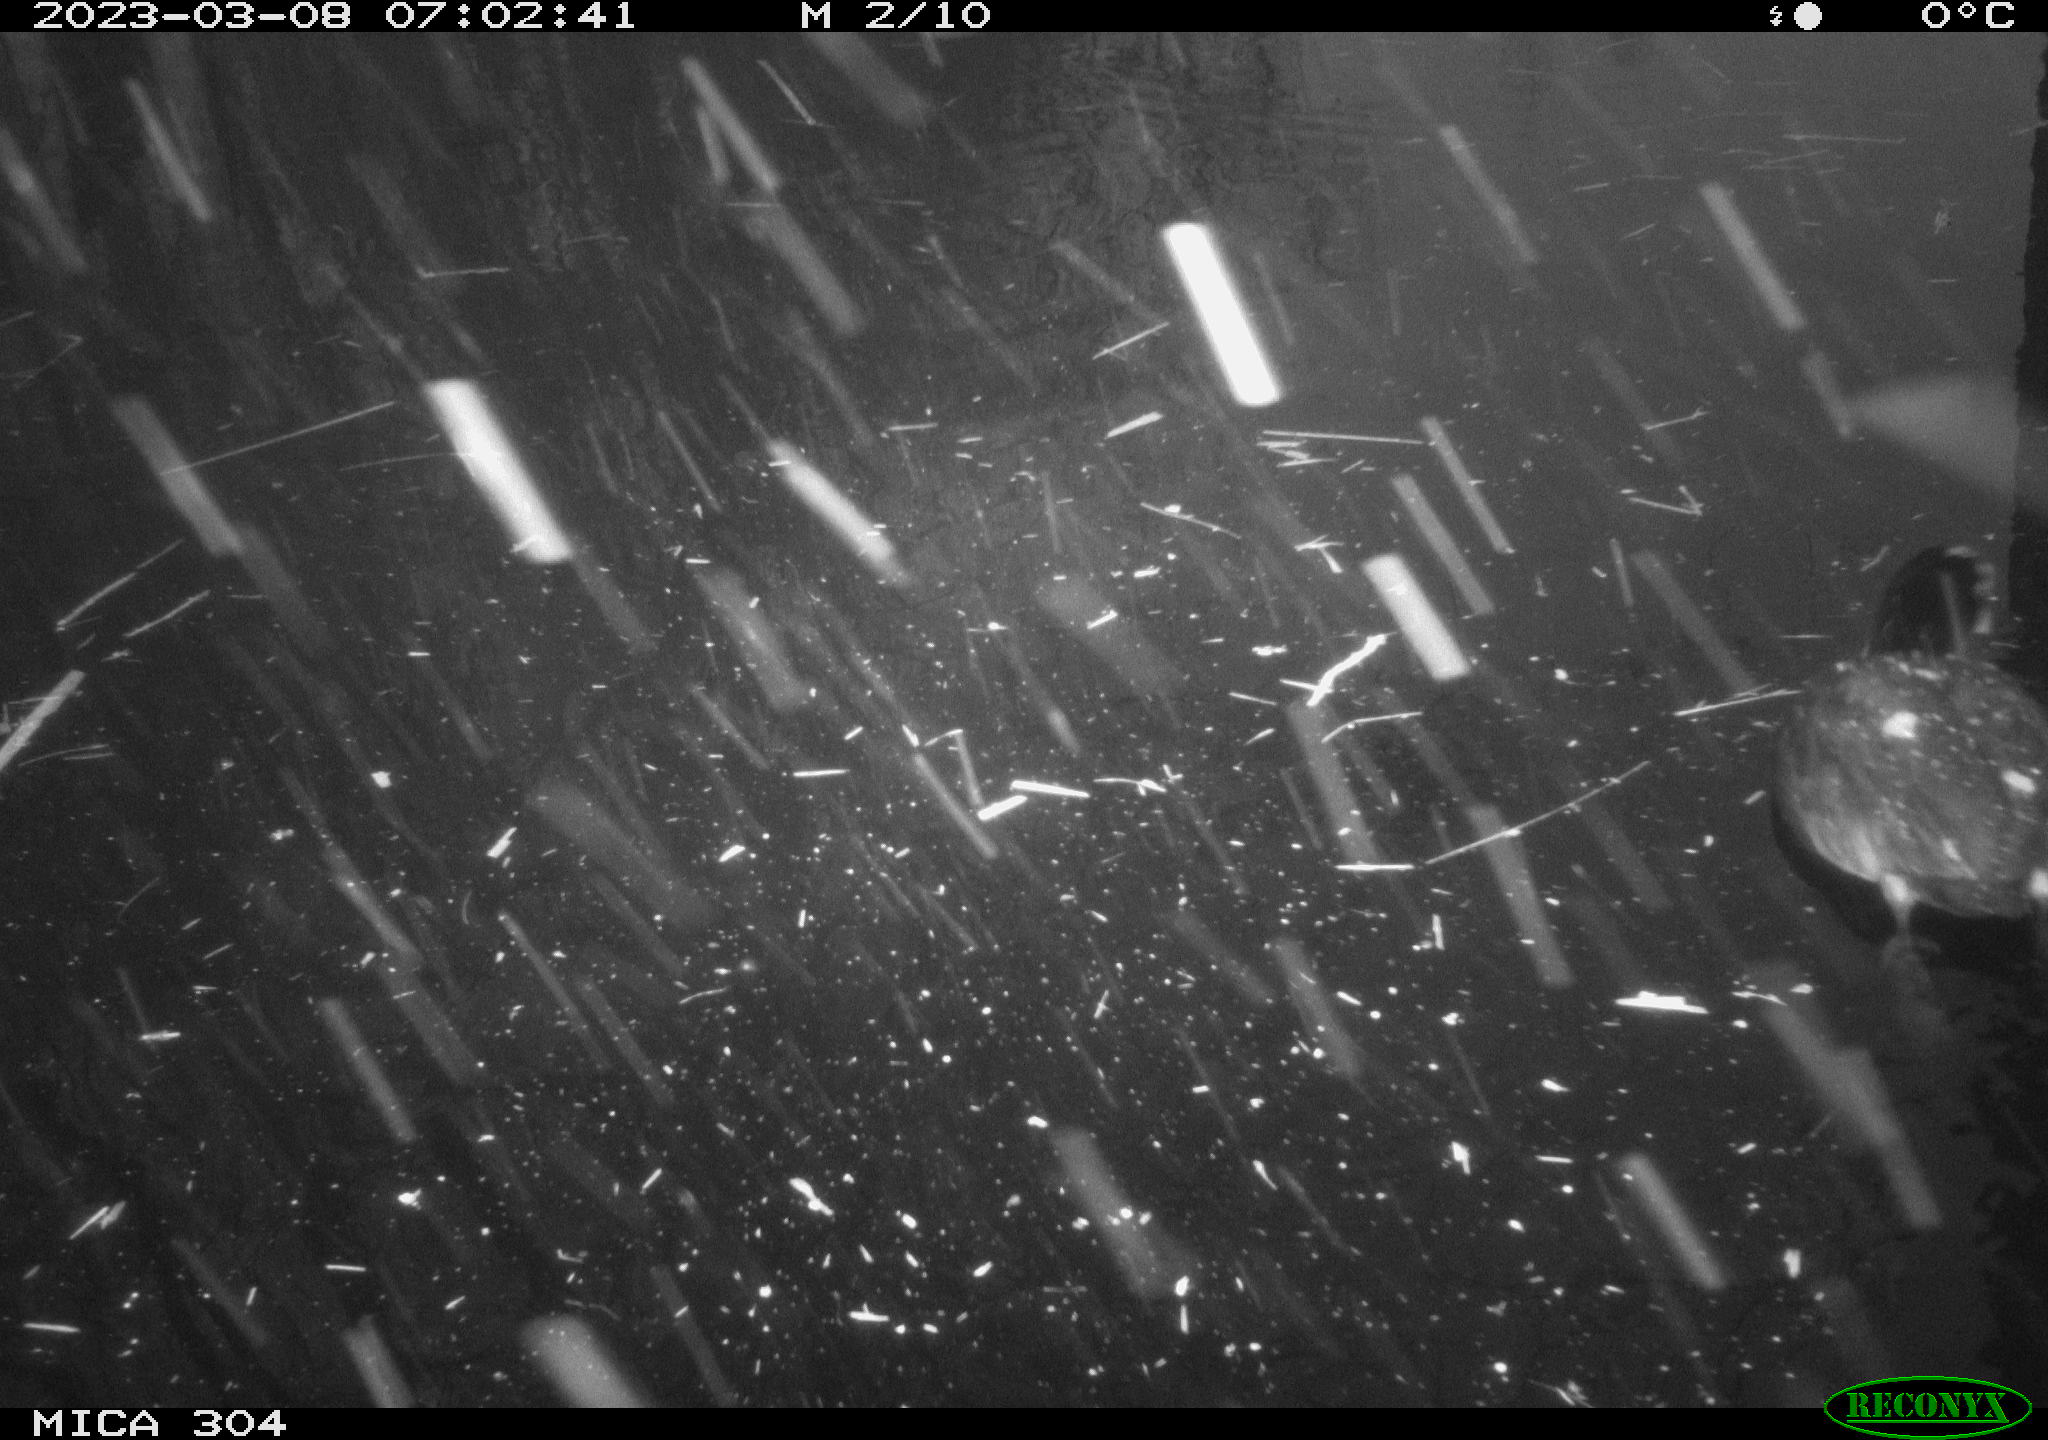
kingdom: Animalia
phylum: Chordata
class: Aves
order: Gruiformes
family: Rallidae
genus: Fulica
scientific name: Fulica atra
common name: Eurasian coot
